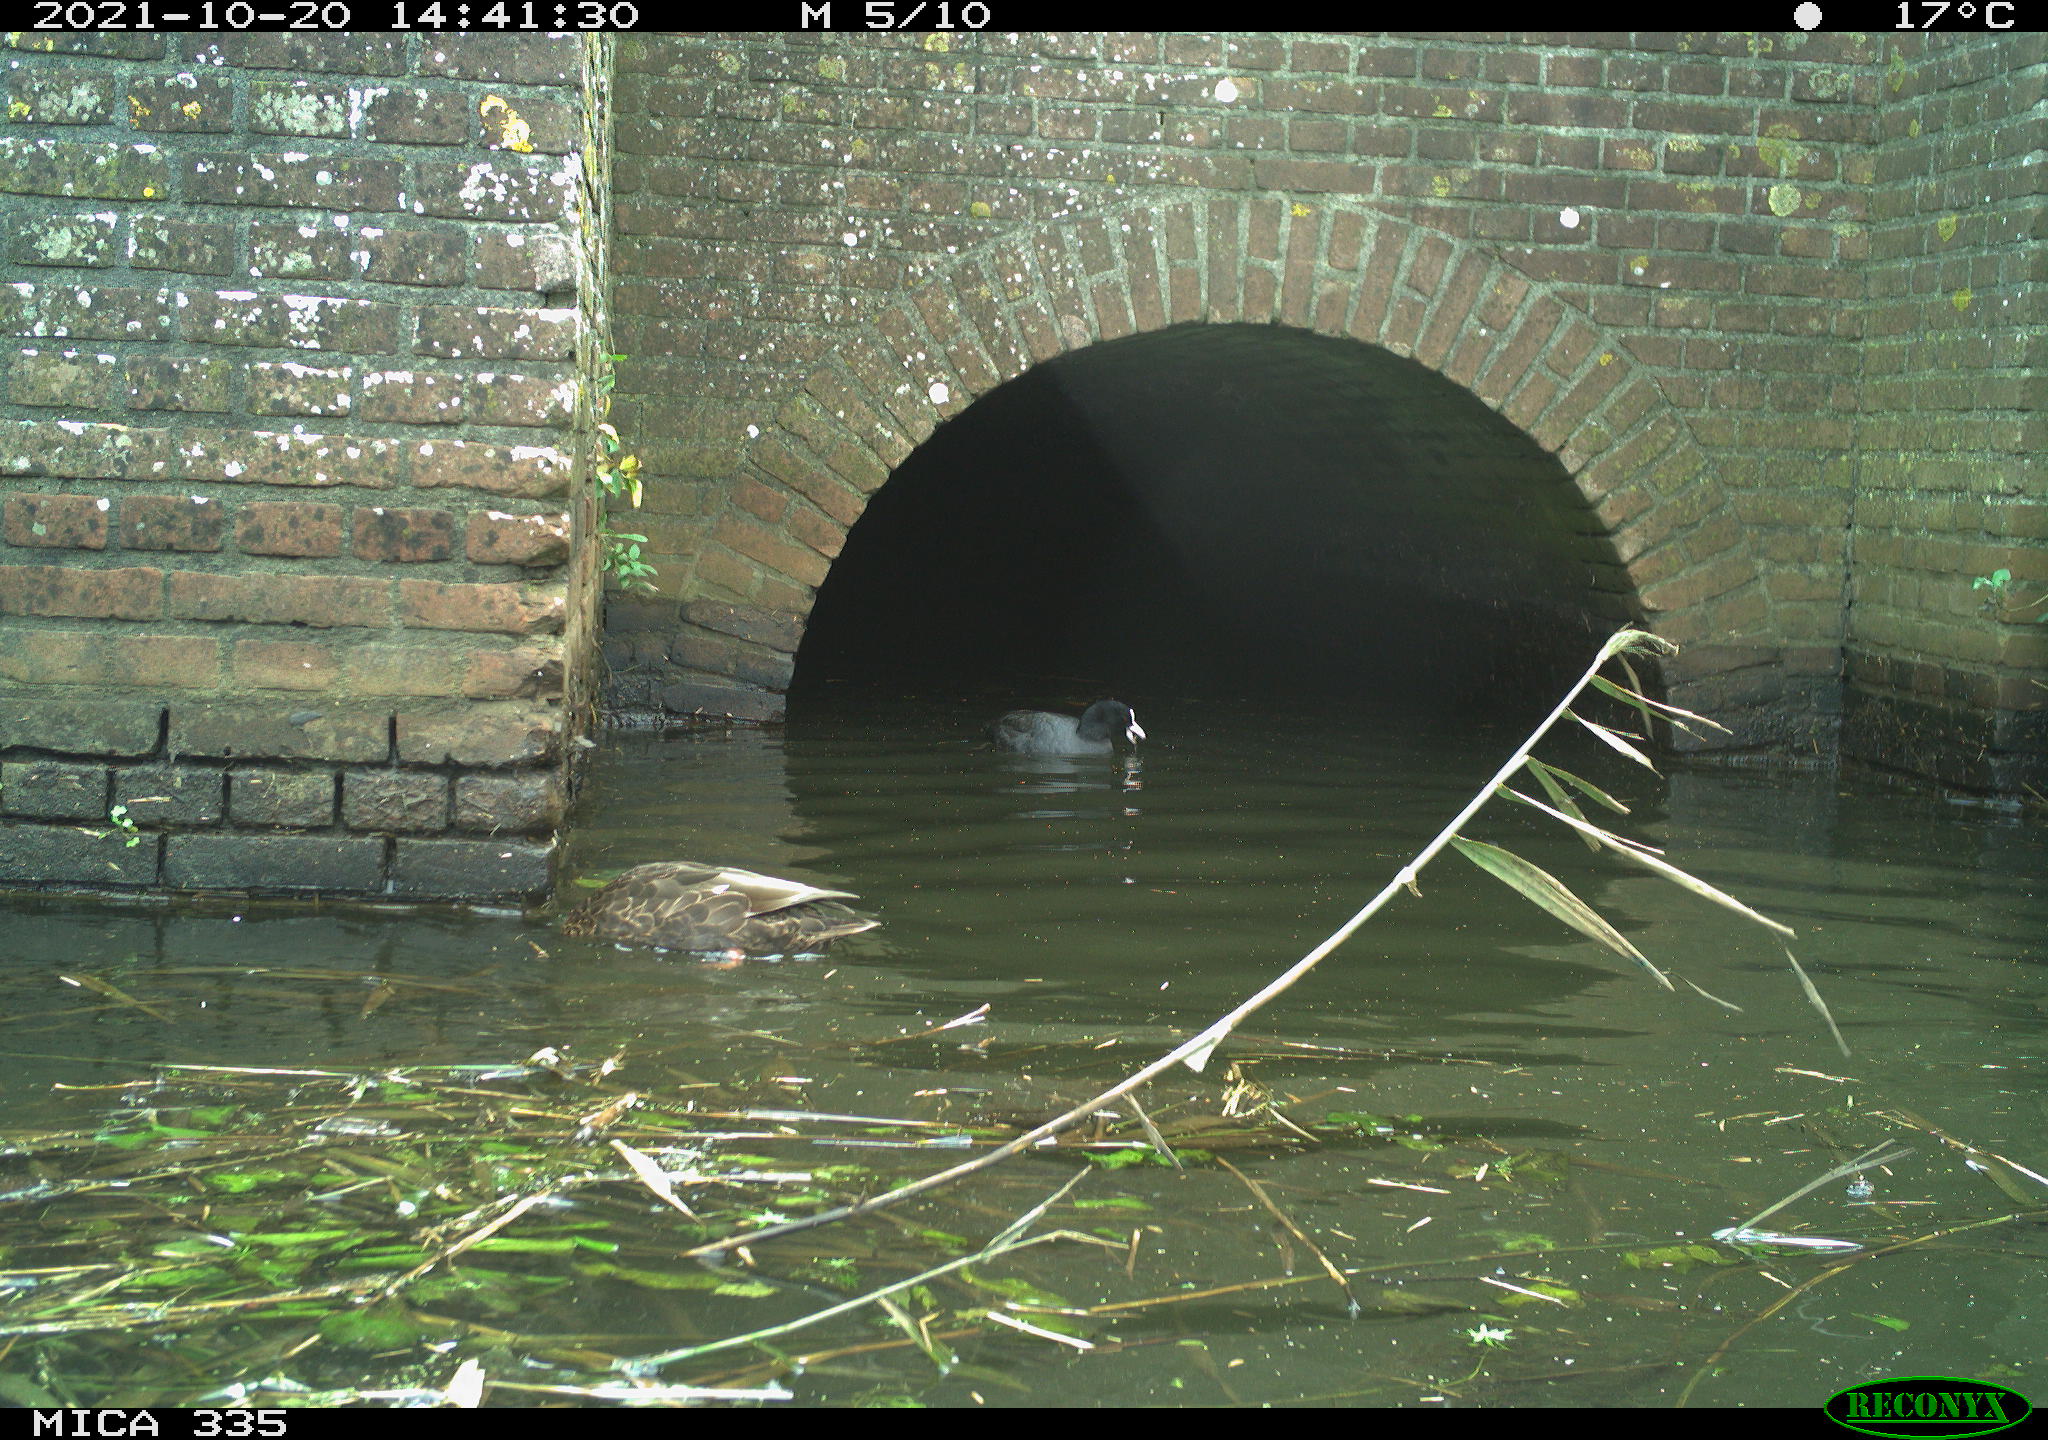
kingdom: Animalia
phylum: Chordata
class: Aves
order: Anseriformes
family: Anatidae
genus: Anas
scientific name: Anas platyrhynchos
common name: Mallard
